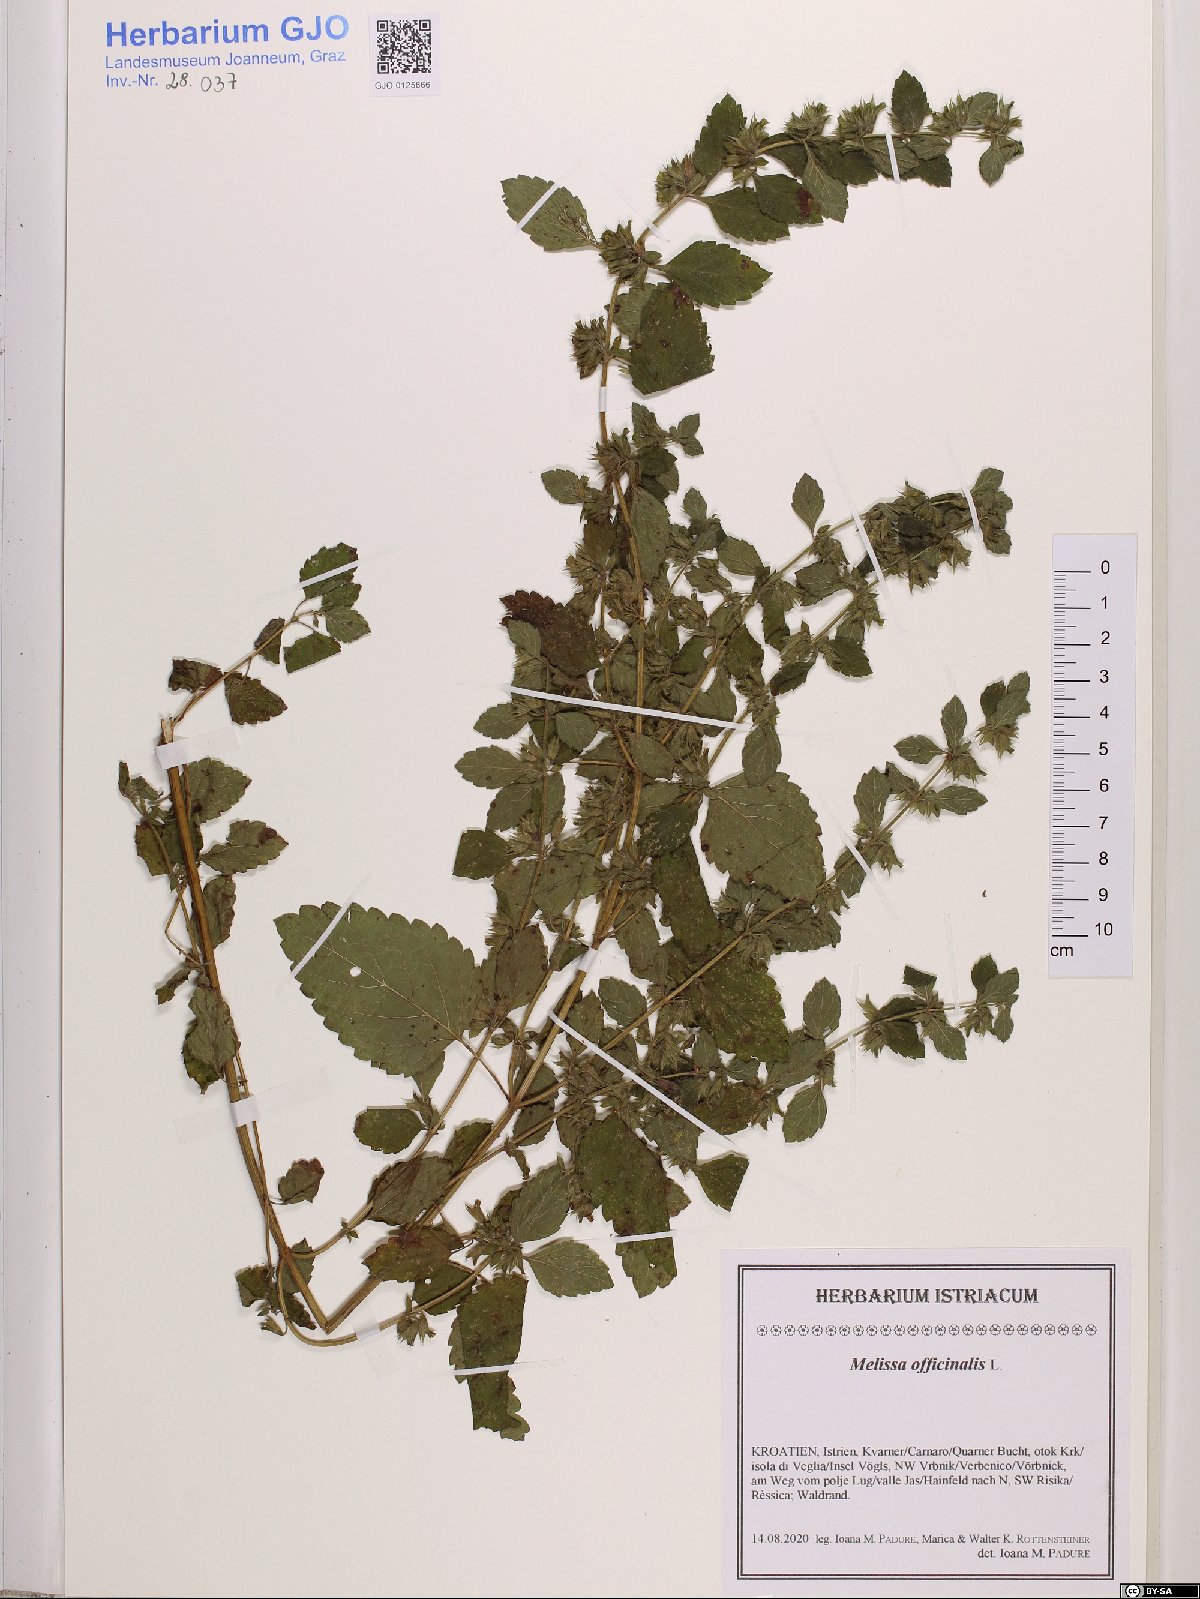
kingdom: Plantae
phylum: Tracheophyta
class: Magnoliopsida
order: Lamiales
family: Lamiaceae
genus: Melissa
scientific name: Melissa officinalis
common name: Balm
